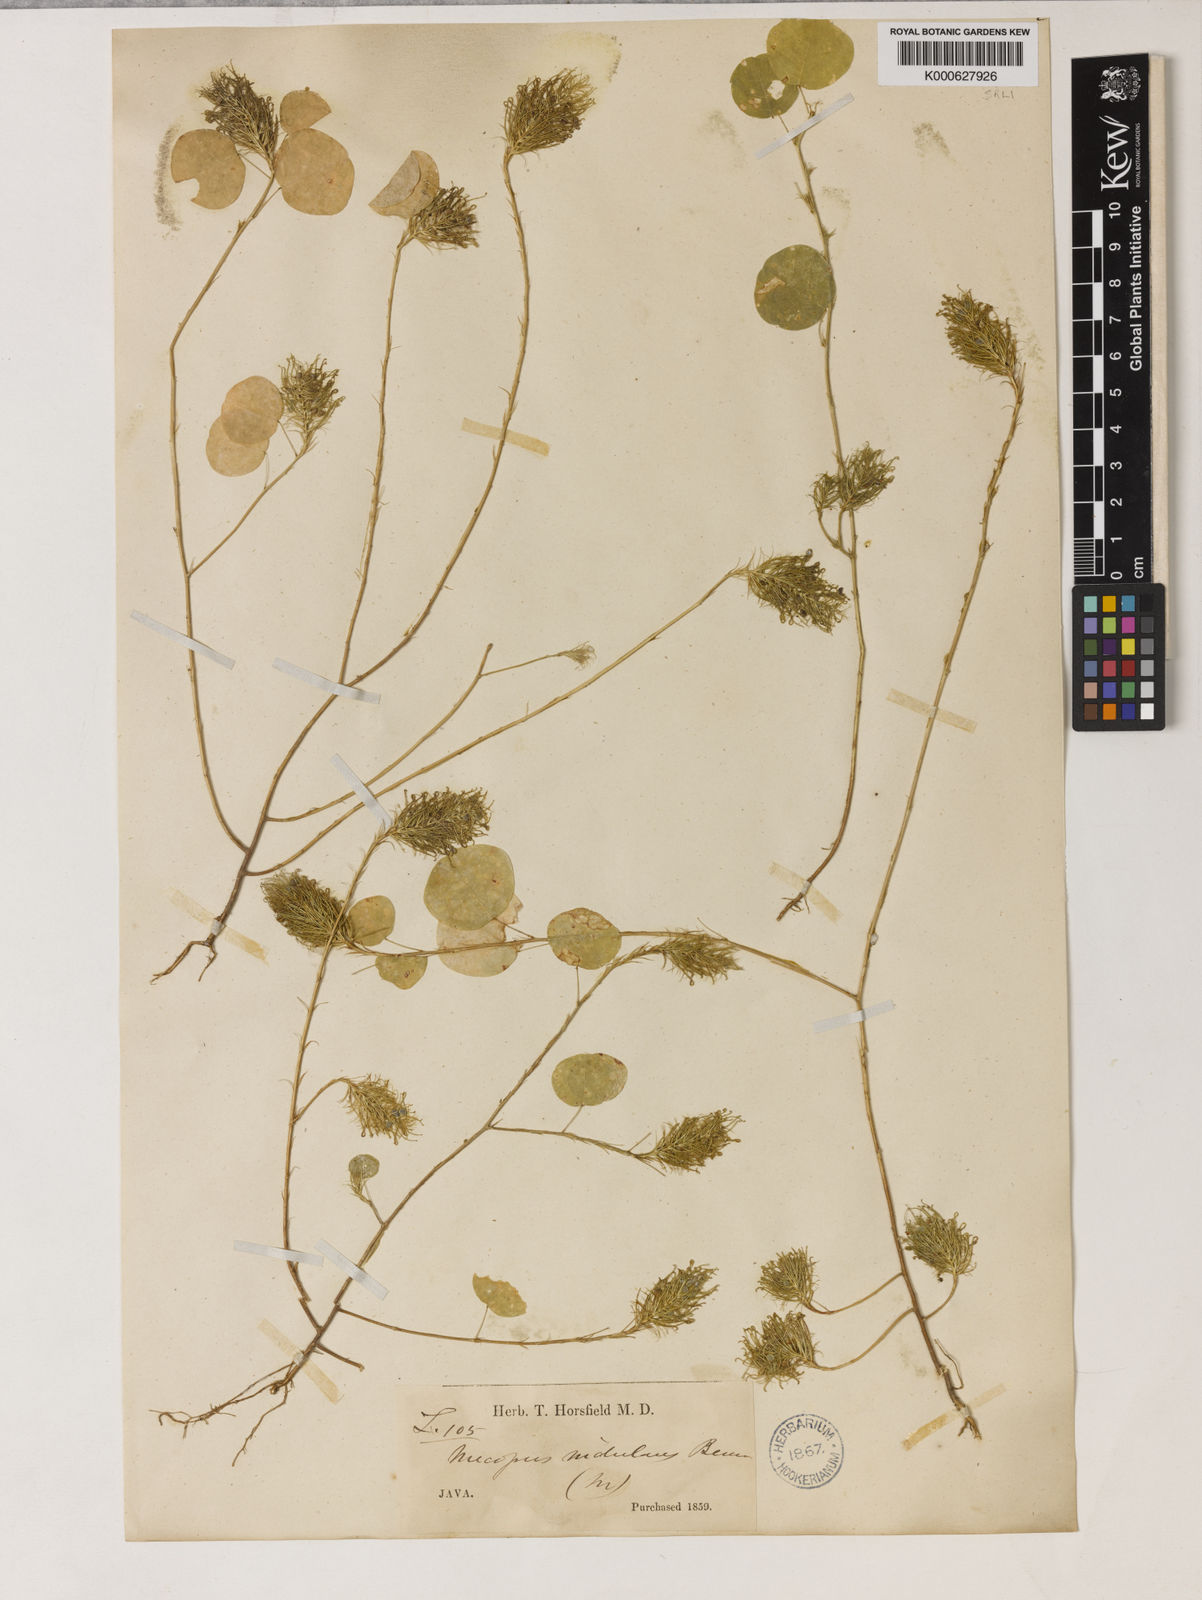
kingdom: Plantae
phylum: Tracheophyta
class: Magnoliopsida
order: Fabales
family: Fabaceae
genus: Mecopus
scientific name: Mecopus nidulans
